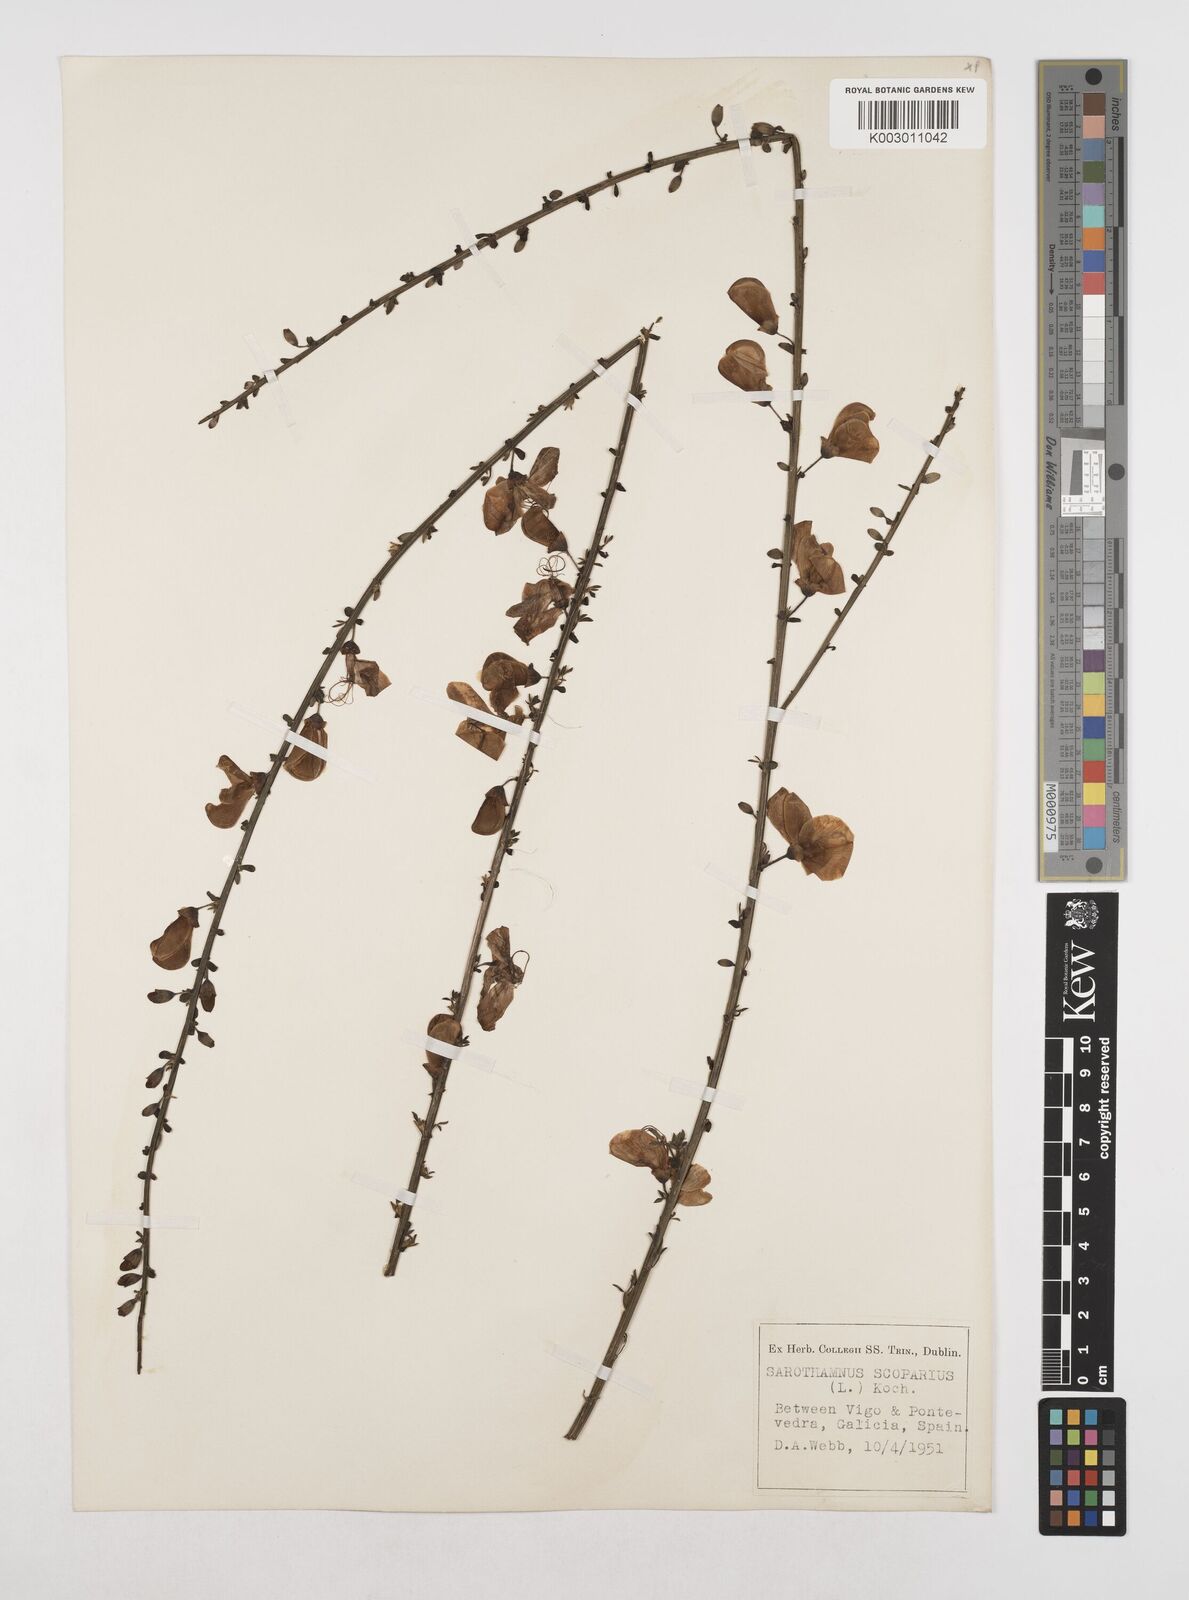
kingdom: Plantae
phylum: Tracheophyta
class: Magnoliopsida
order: Fabales
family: Fabaceae
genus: Cytisus
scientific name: Cytisus scoparius
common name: Scotch broom
